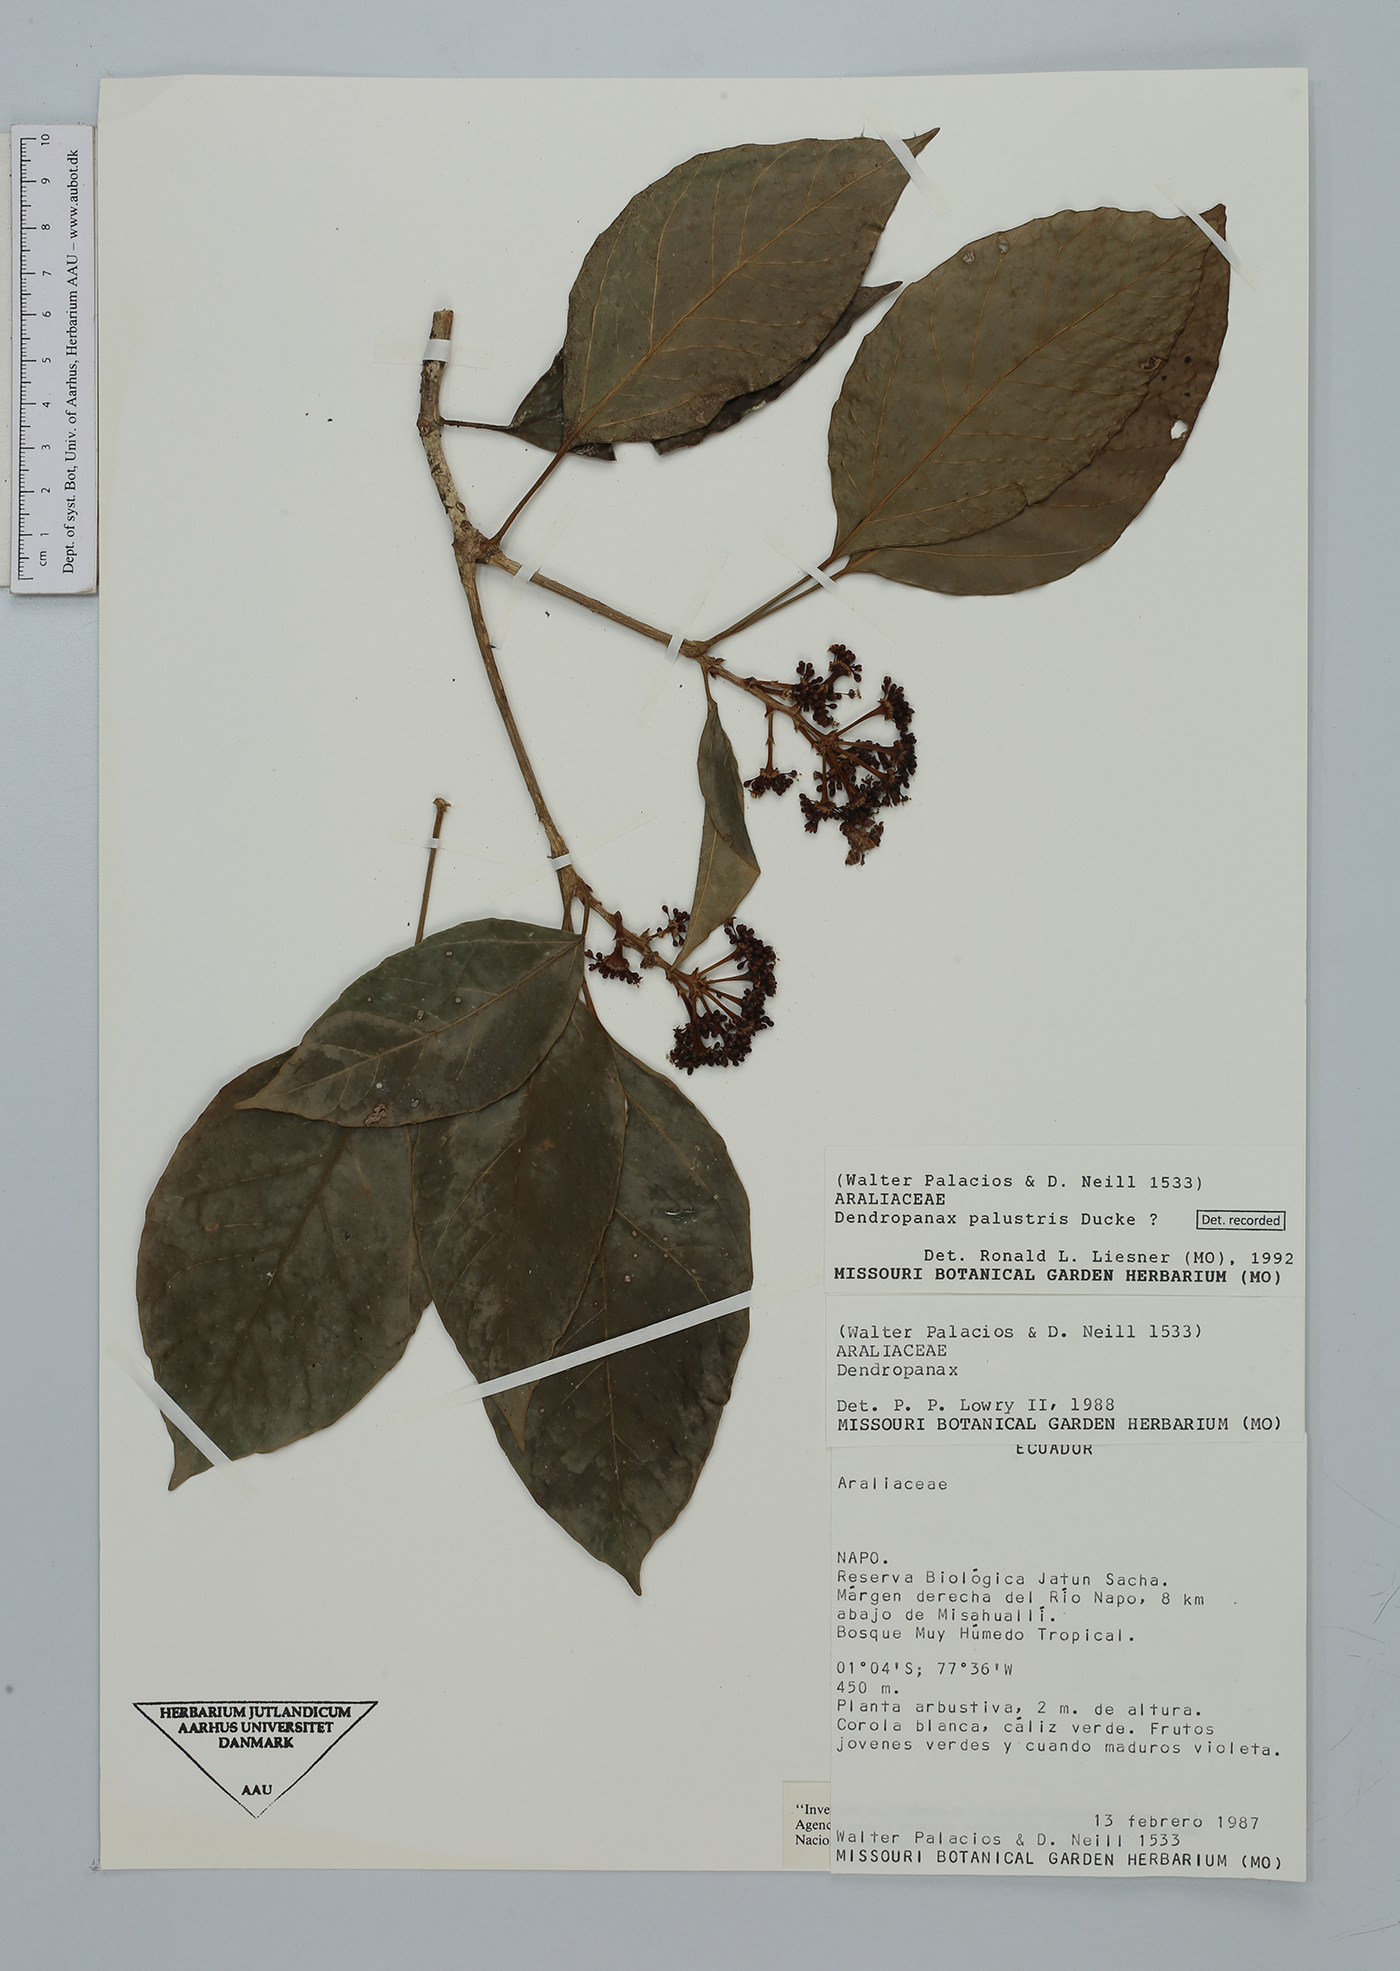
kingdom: Plantae
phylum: Tracheophyta
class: Magnoliopsida
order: Apiales
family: Araliaceae
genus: Dendropanax
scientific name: Dendropanax palustris
